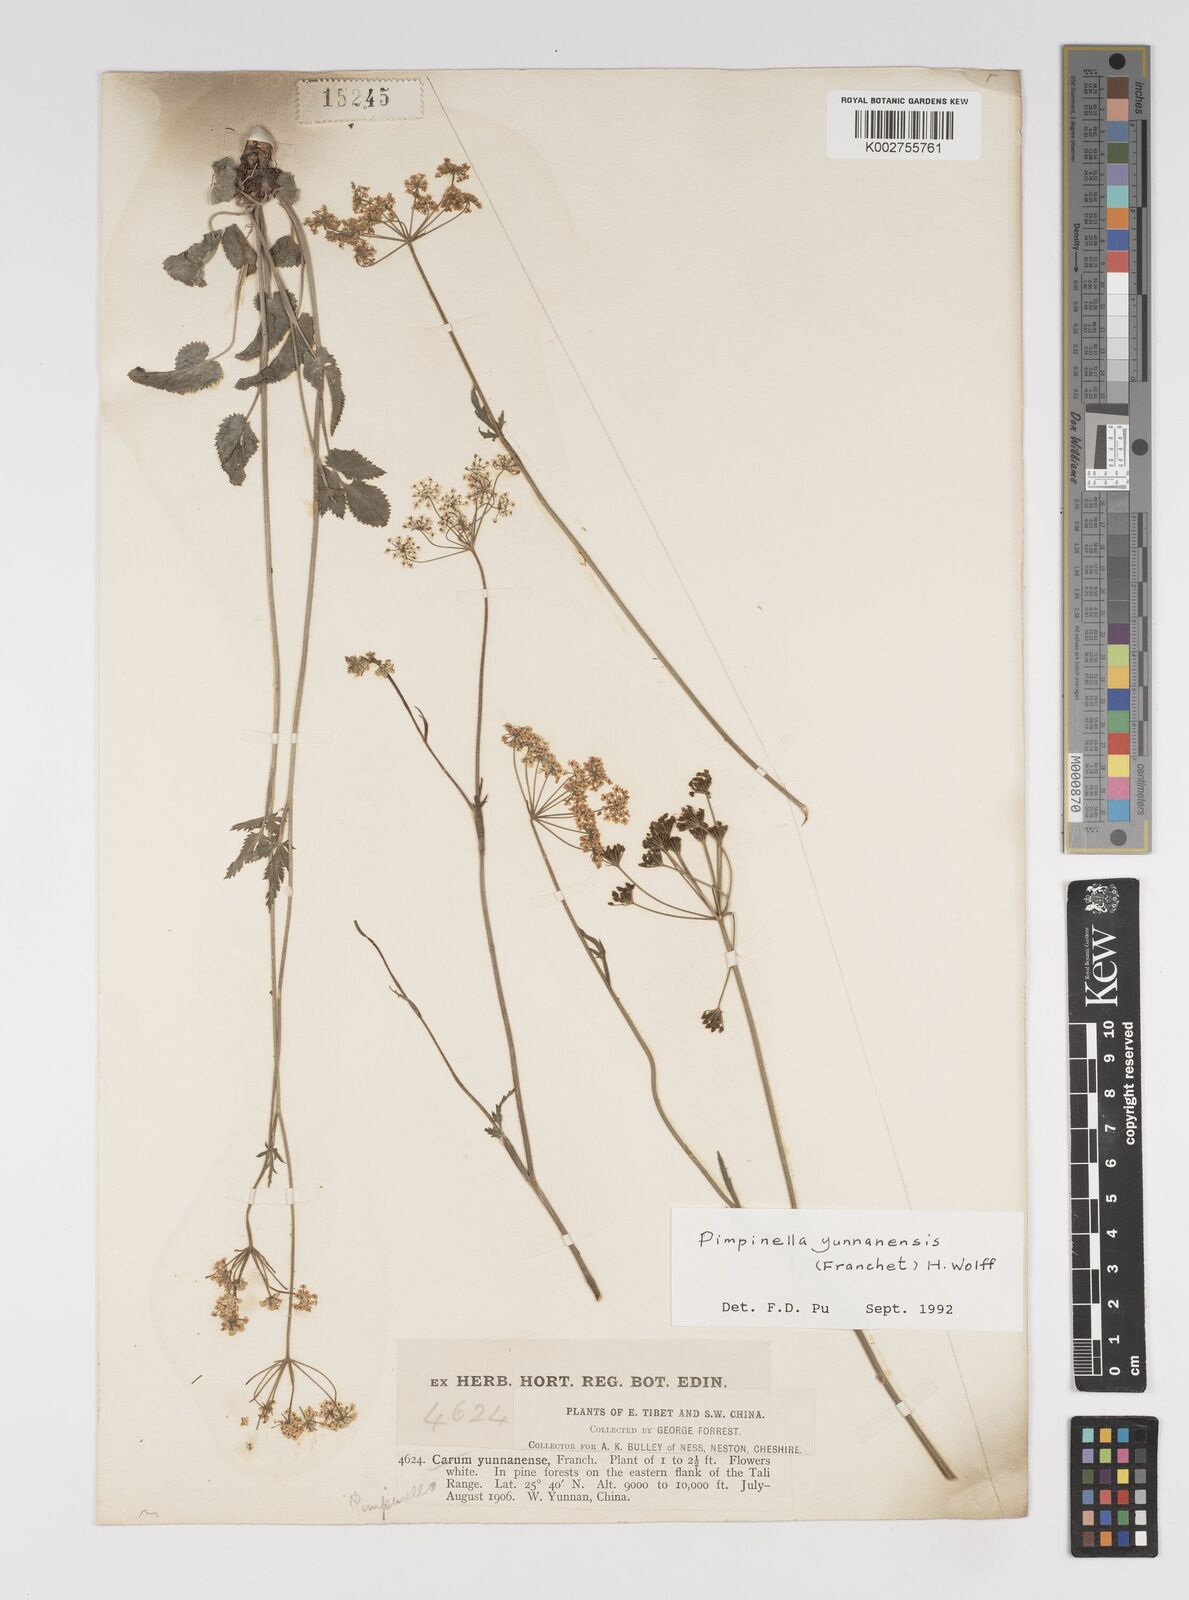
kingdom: Plantae
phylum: Tracheophyta
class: Magnoliopsida
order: Apiales
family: Apiaceae
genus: Pimpinella
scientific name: Pimpinella yunnanensis
